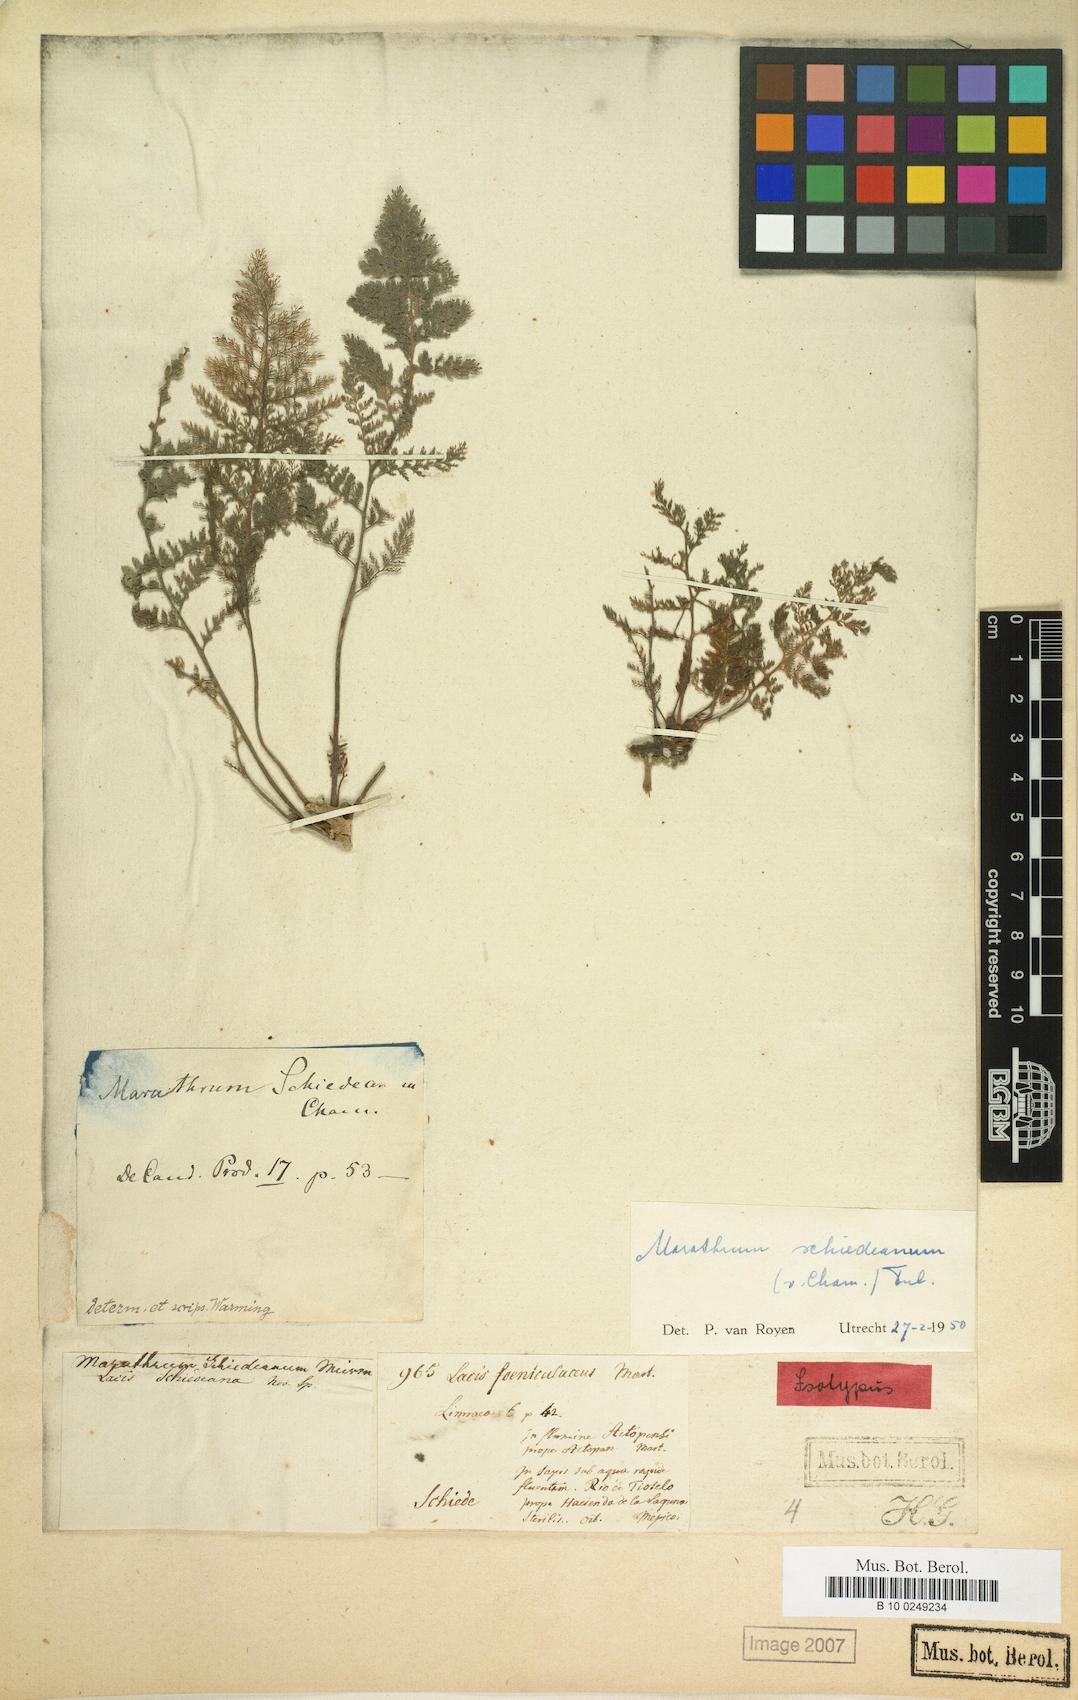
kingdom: Plantae
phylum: Tracheophyta
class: Magnoliopsida
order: Malpighiales
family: Podostemaceae
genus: Marathrum
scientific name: Marathrum foeniculaceum
